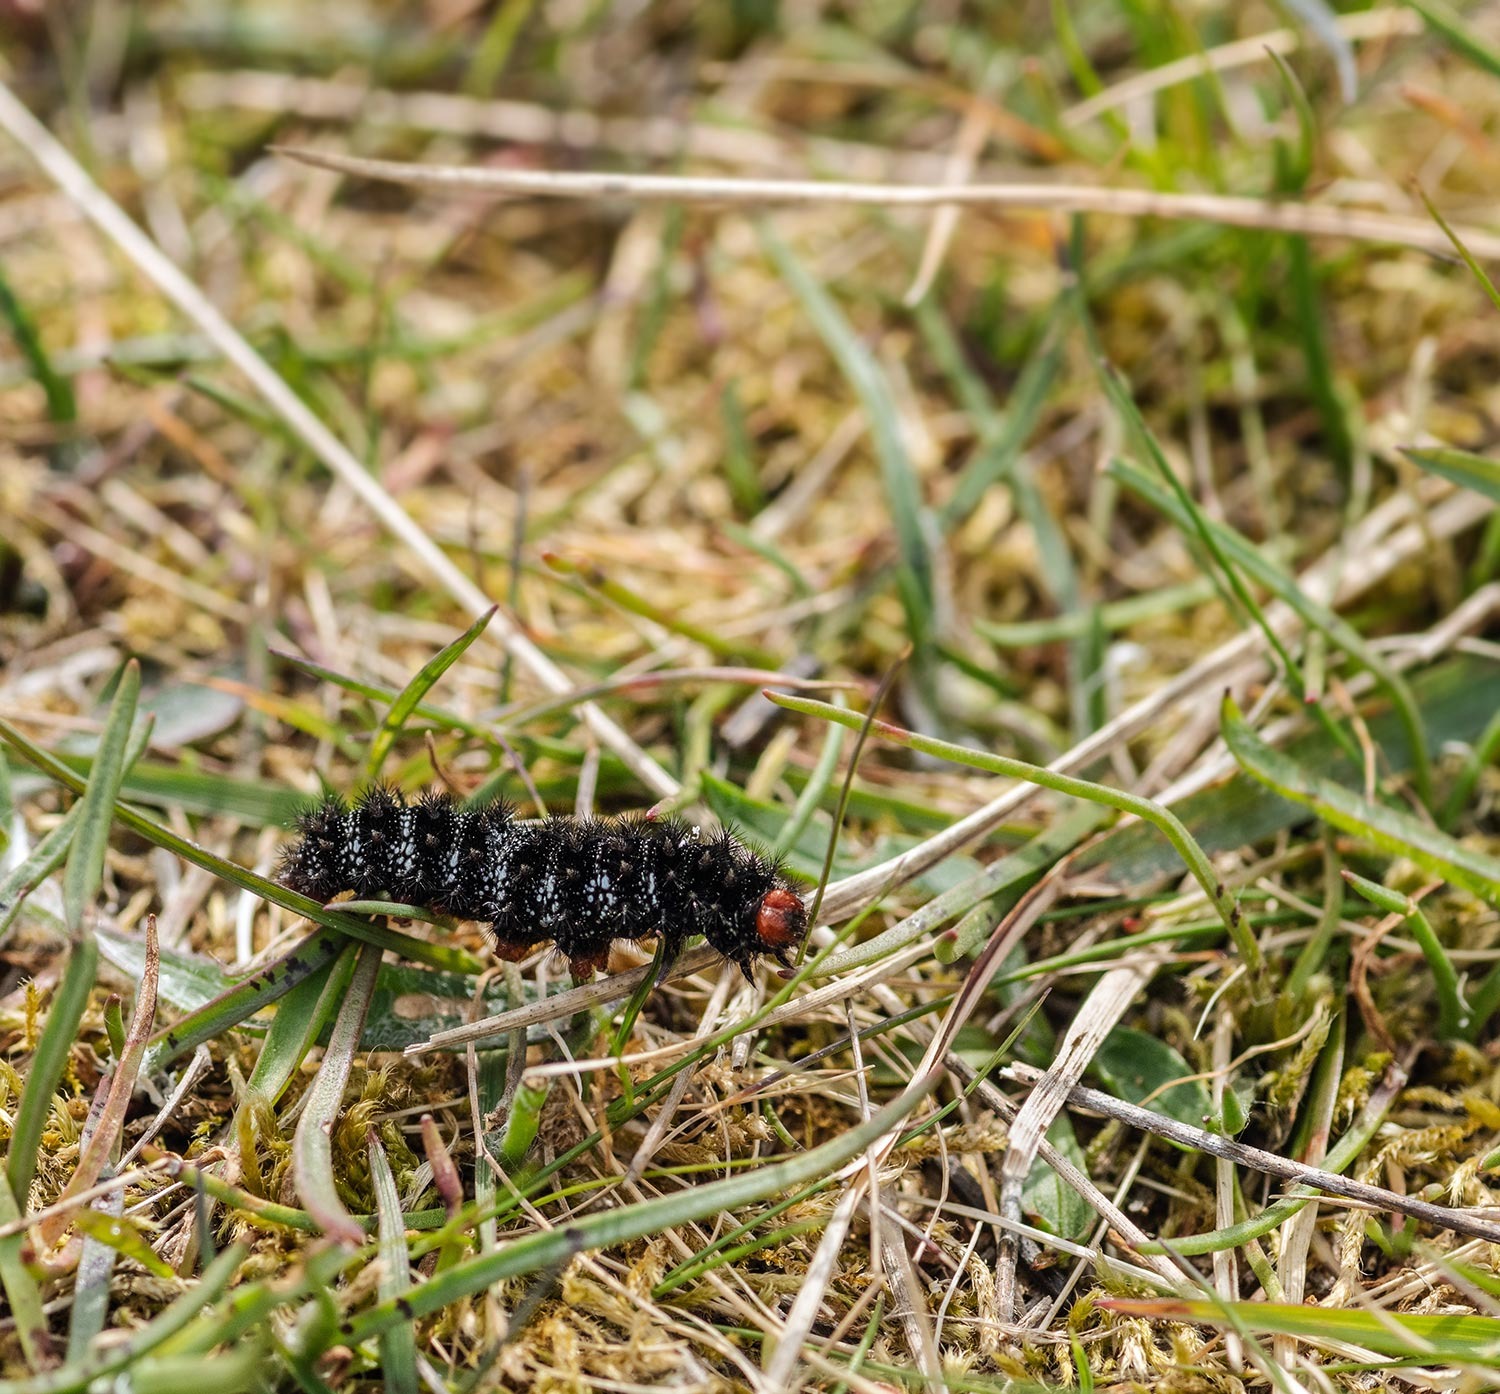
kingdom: Animalia
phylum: Arthropoda
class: Insecta
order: Lepidoptera
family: Nymphalidae
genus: Melitaea
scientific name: Melitaea cinxia
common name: Okkergul pletvinge
